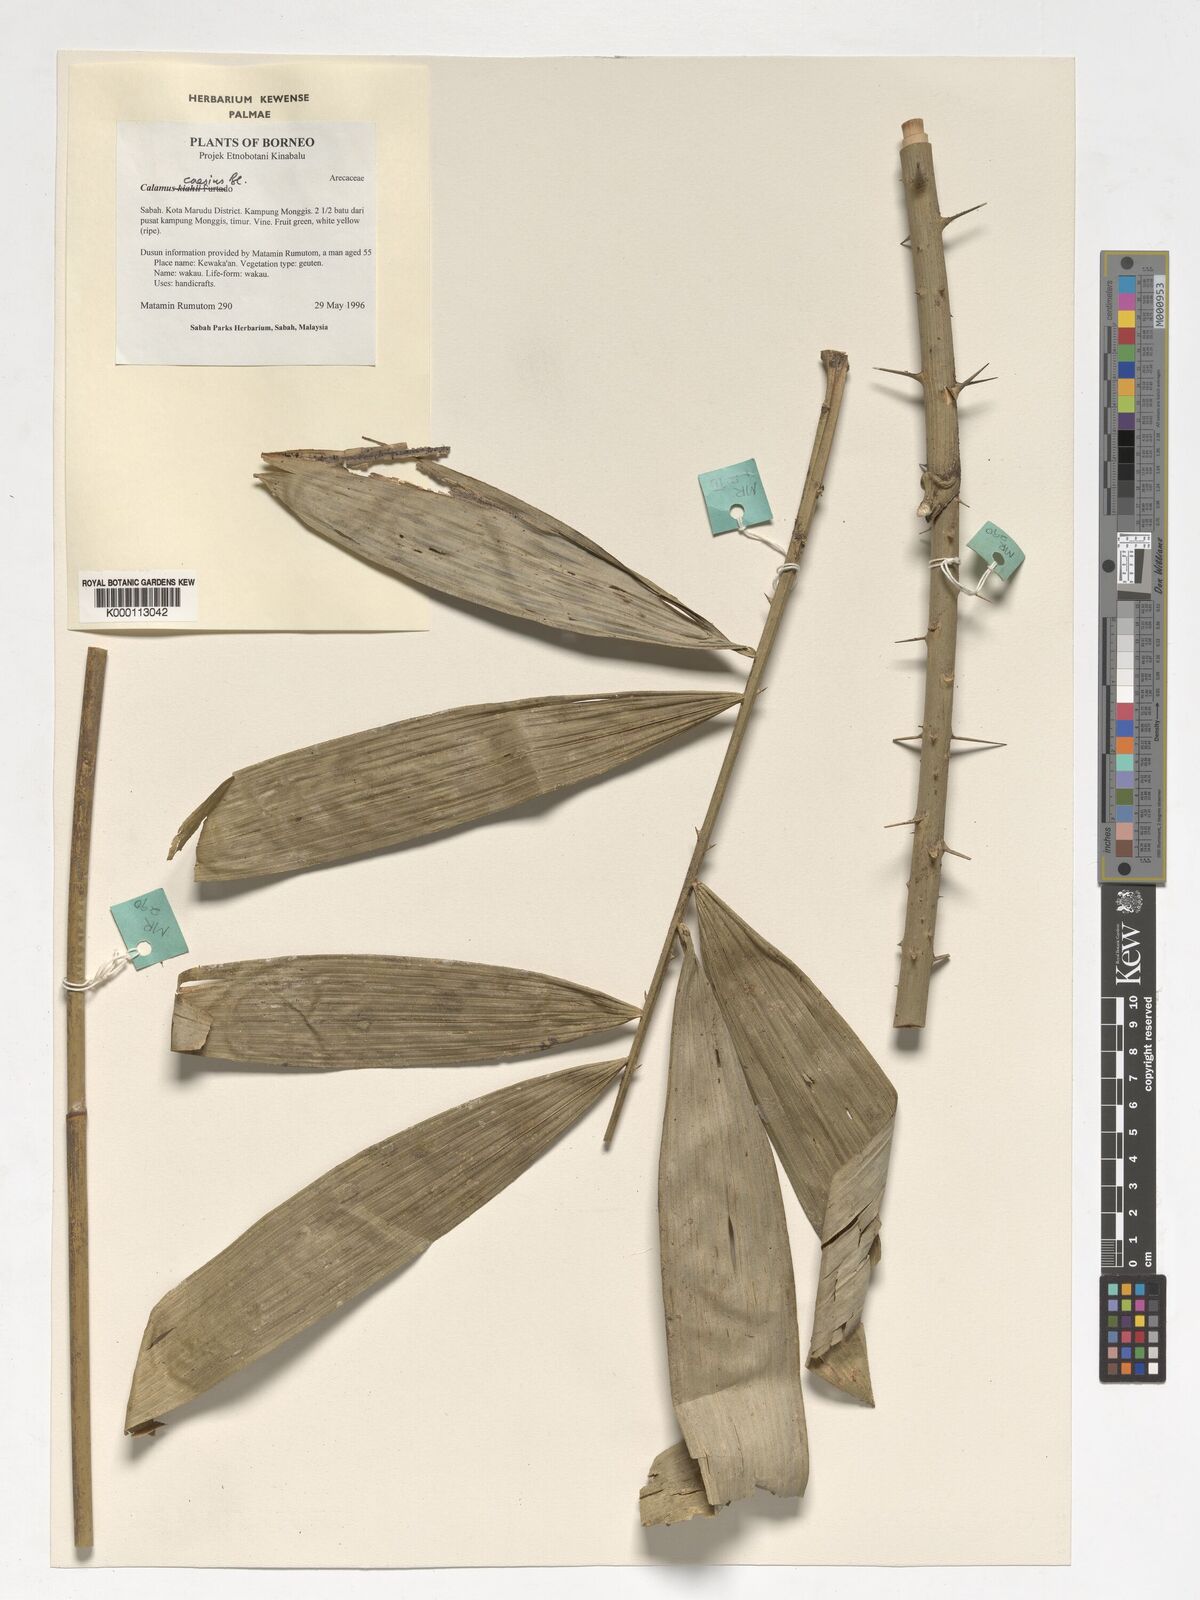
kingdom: Plantae
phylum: Tracheophyta
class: Liliopsida
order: Arecales
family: Arecaceae
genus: Calamus
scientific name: Calamus caesius
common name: Rattan palm
